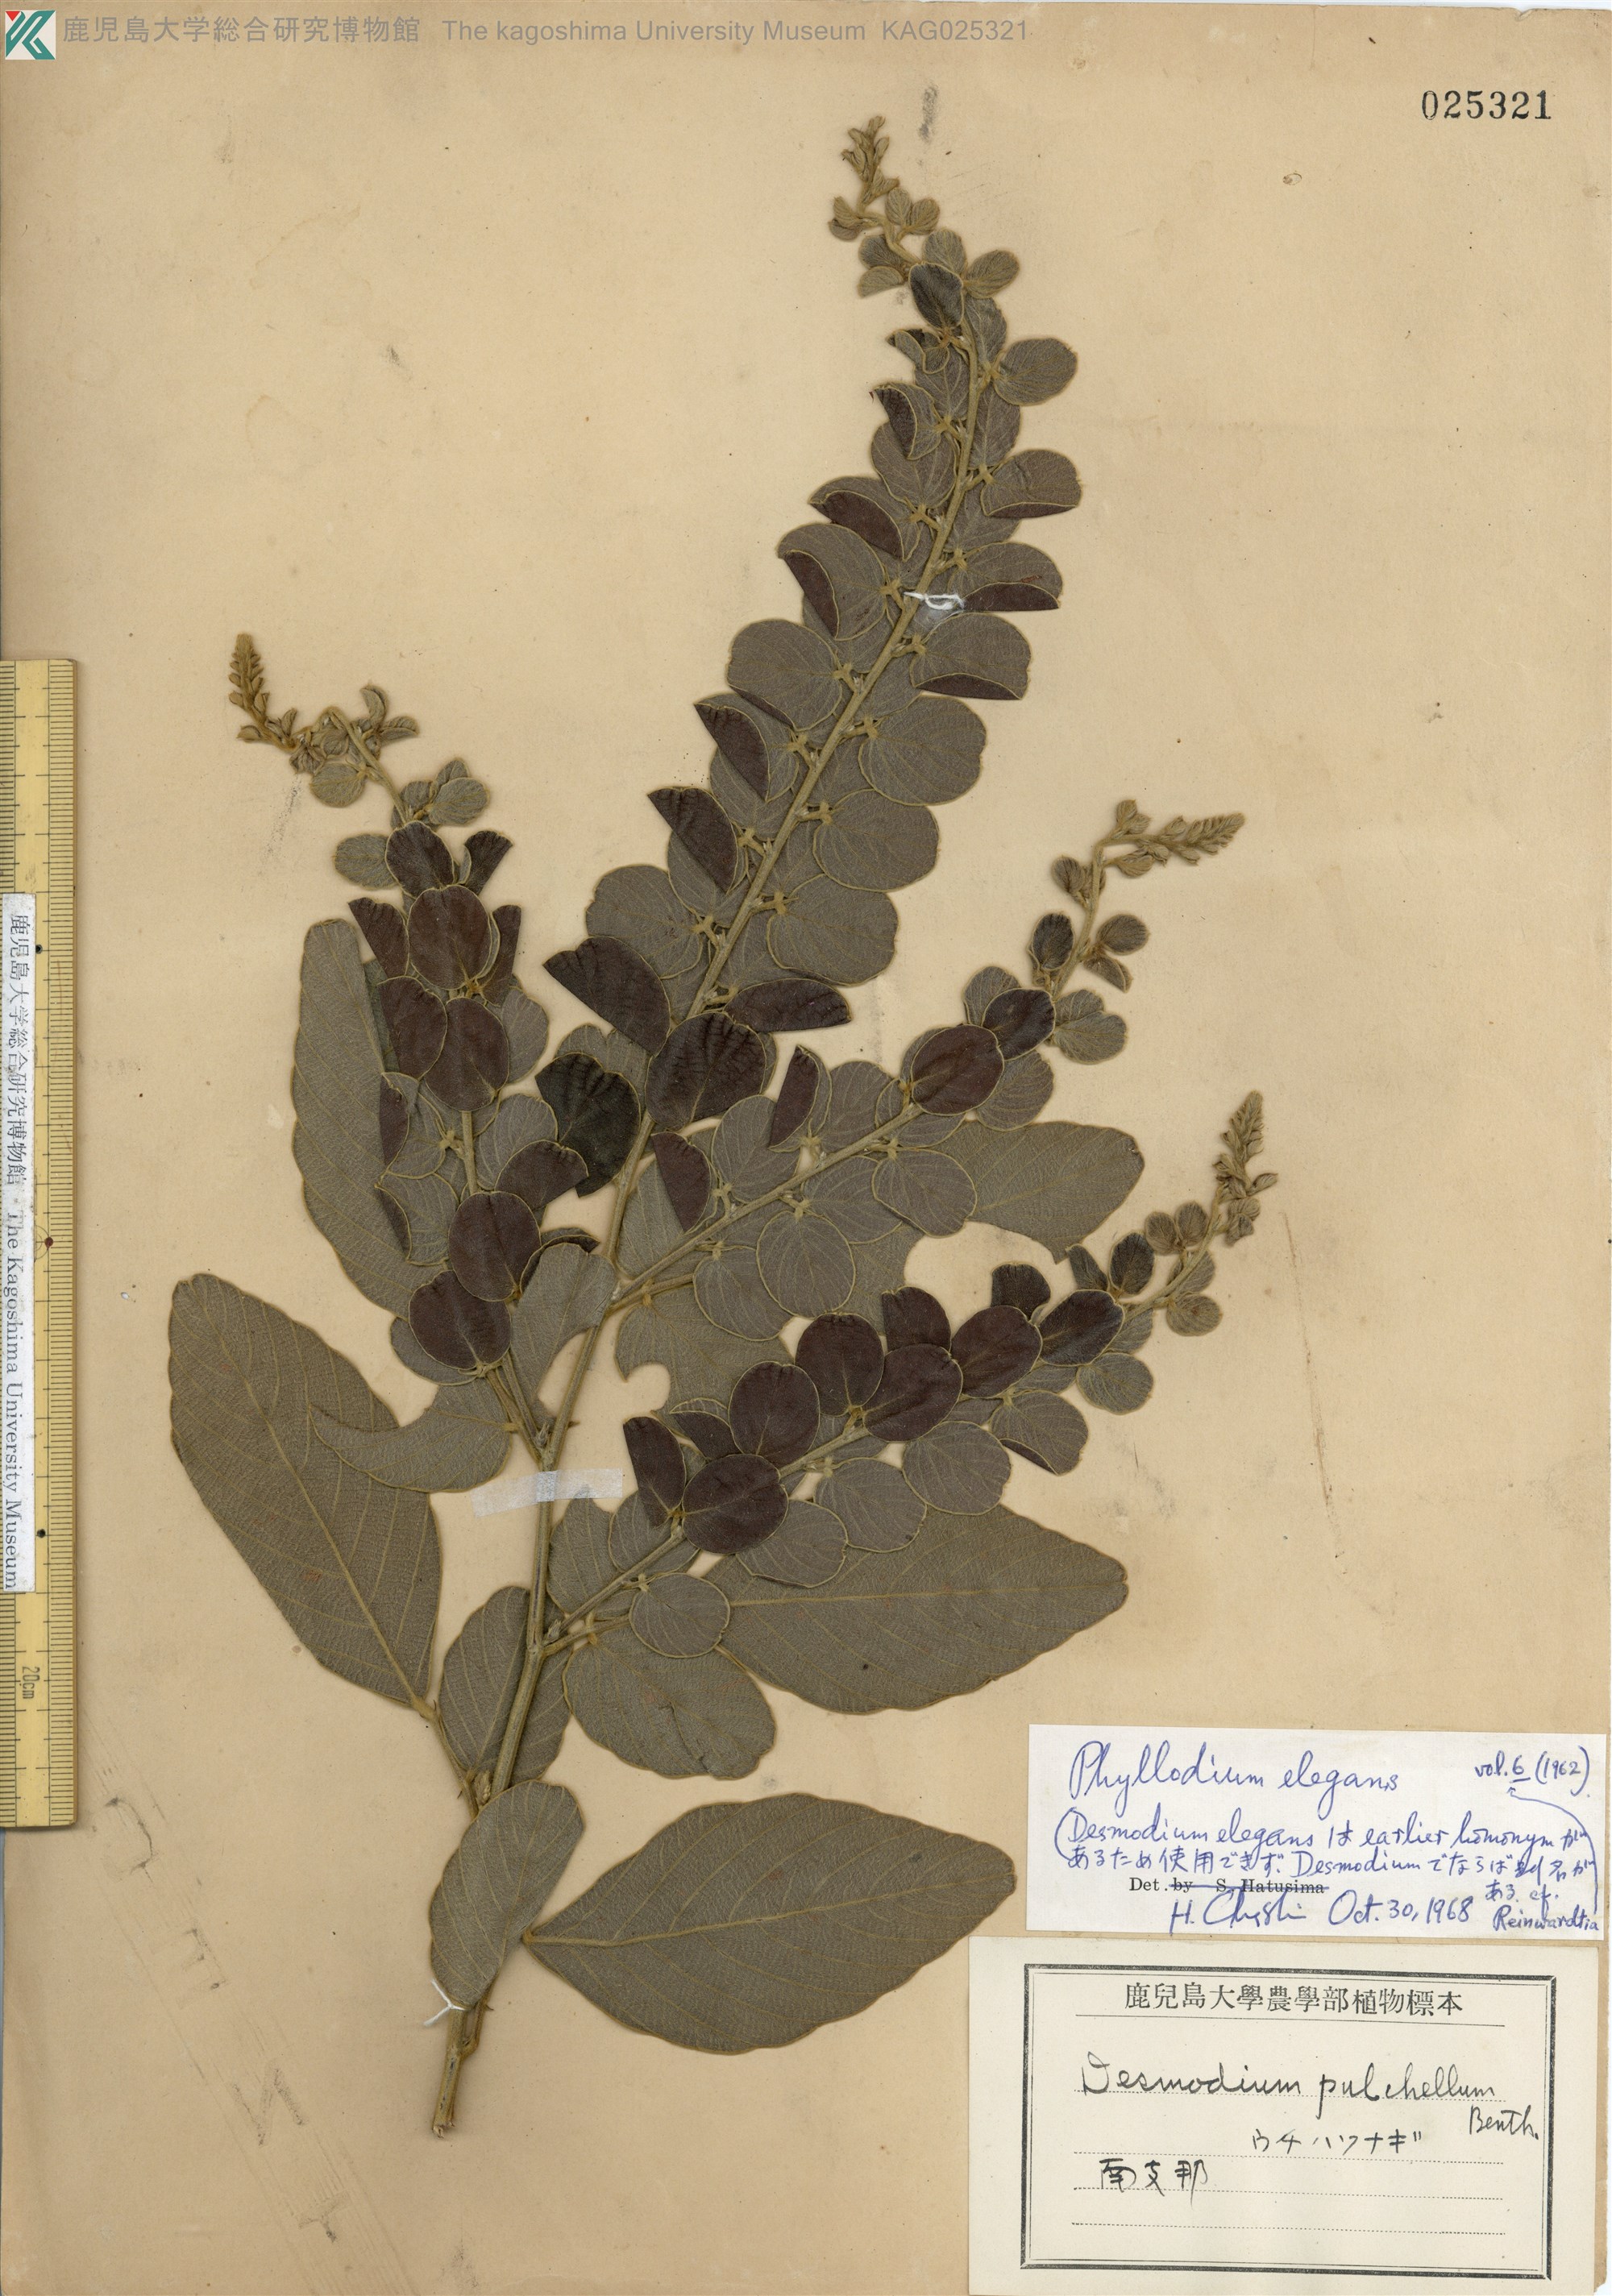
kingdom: Plantae
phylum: Tracheophyta
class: Magnoliopsida
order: Fabales
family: Fabaceae
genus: Phyllodium
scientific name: Phyllodium pulchellum
